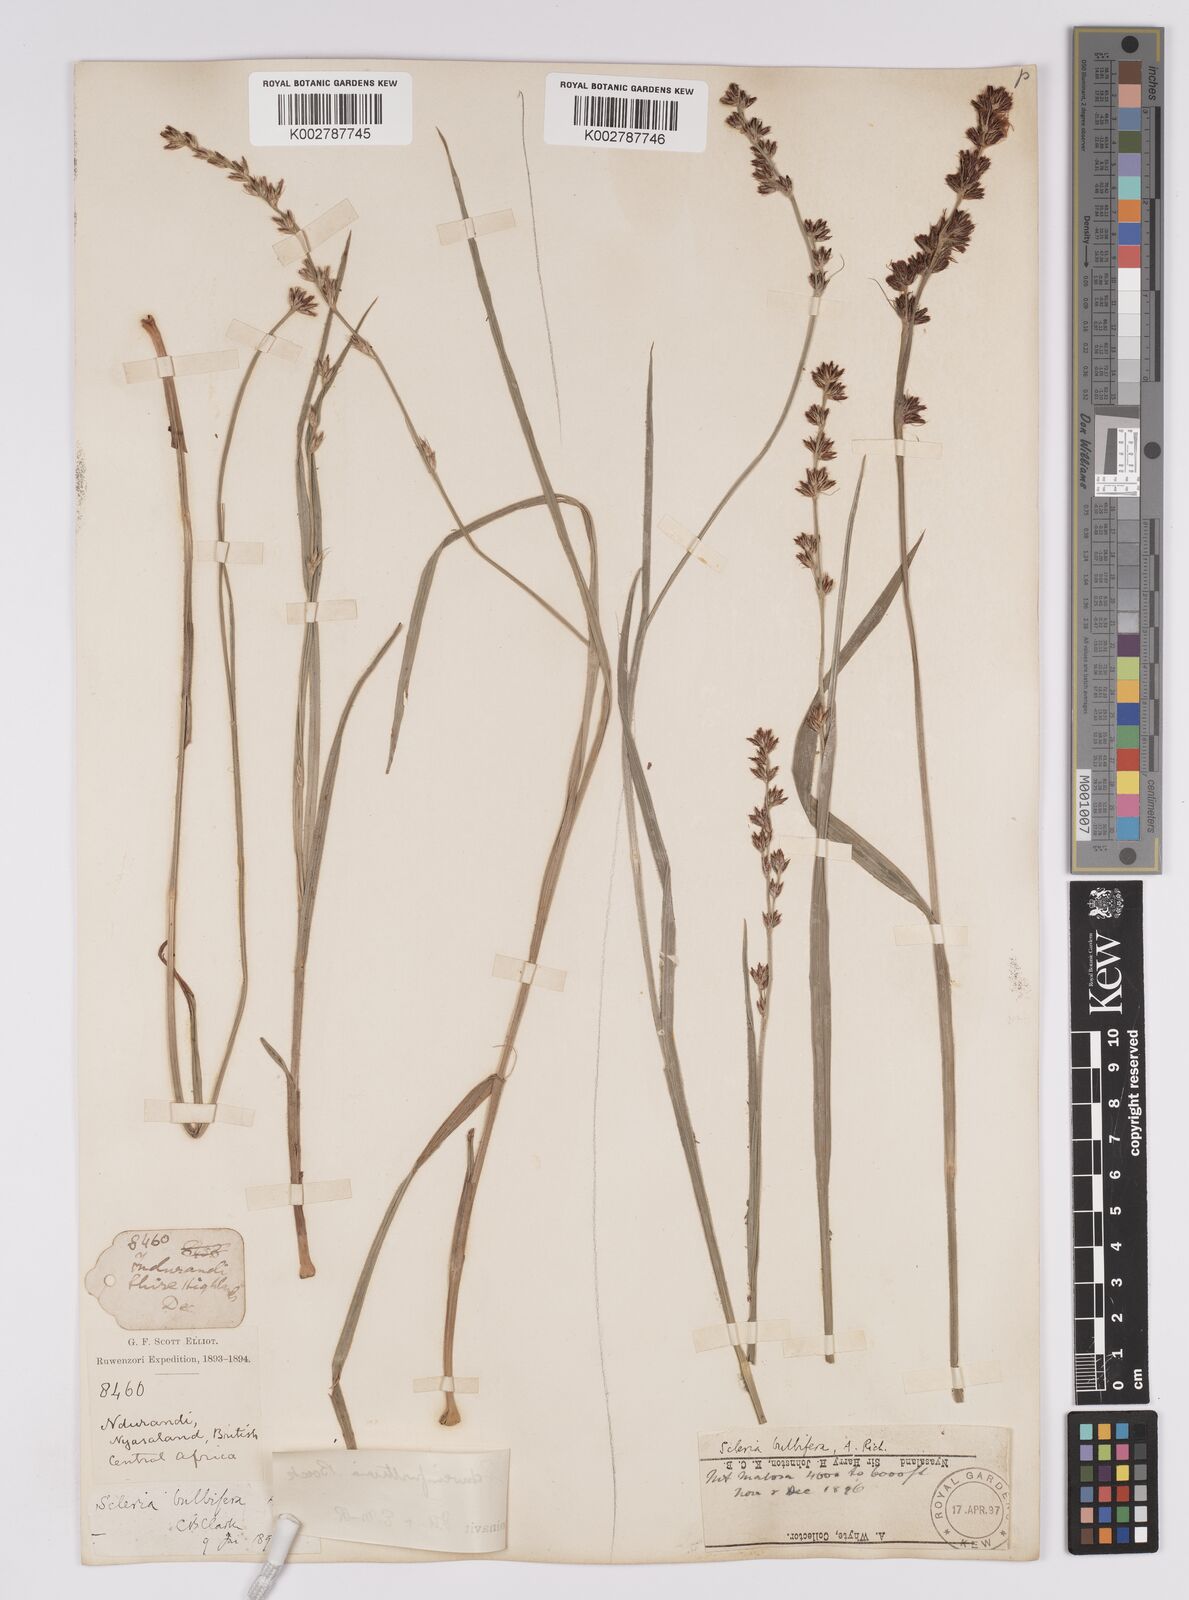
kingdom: Plantae
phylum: Tracheophyta
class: Liliopsida
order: Poales
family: Cyperaceae
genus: Scleria
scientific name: Scleria bulbifera
